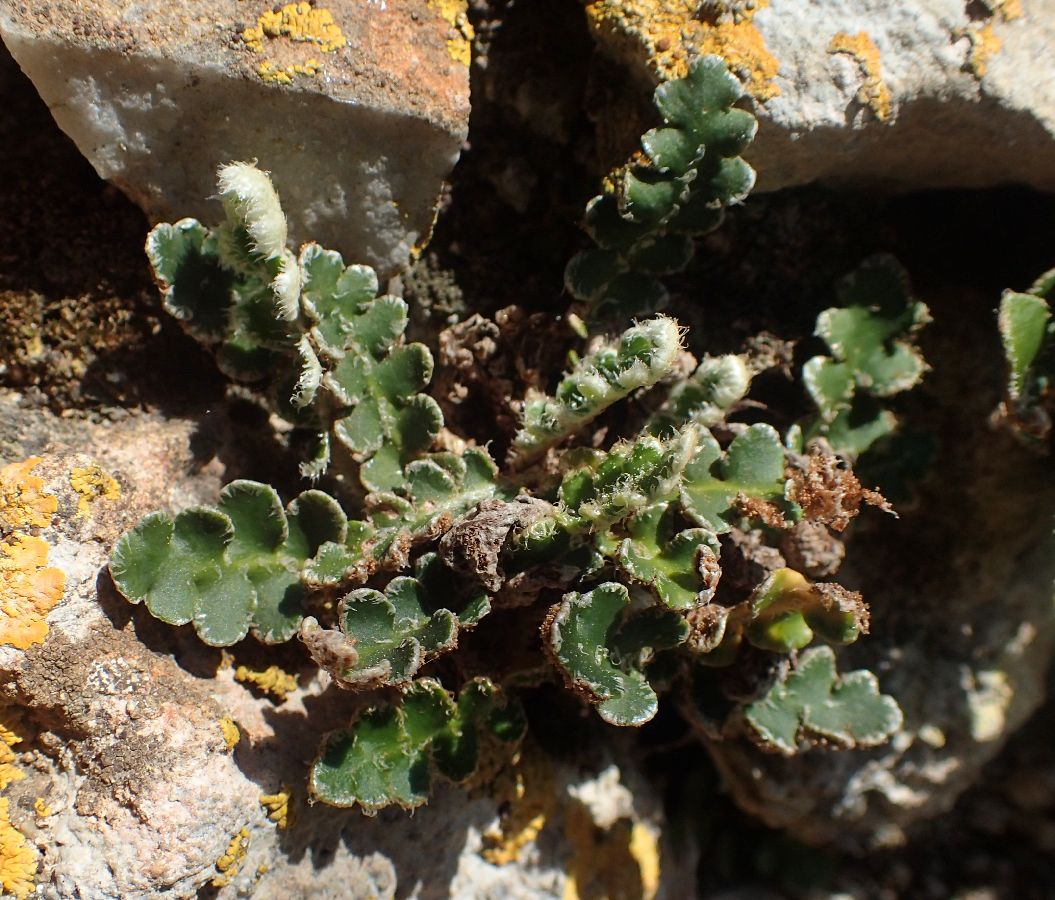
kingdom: Plantae
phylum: Tracheophyta
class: Polypodiopsida
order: Polypodiales
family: Aspleniaceae
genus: Asplenium
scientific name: Asplenium ceterach
